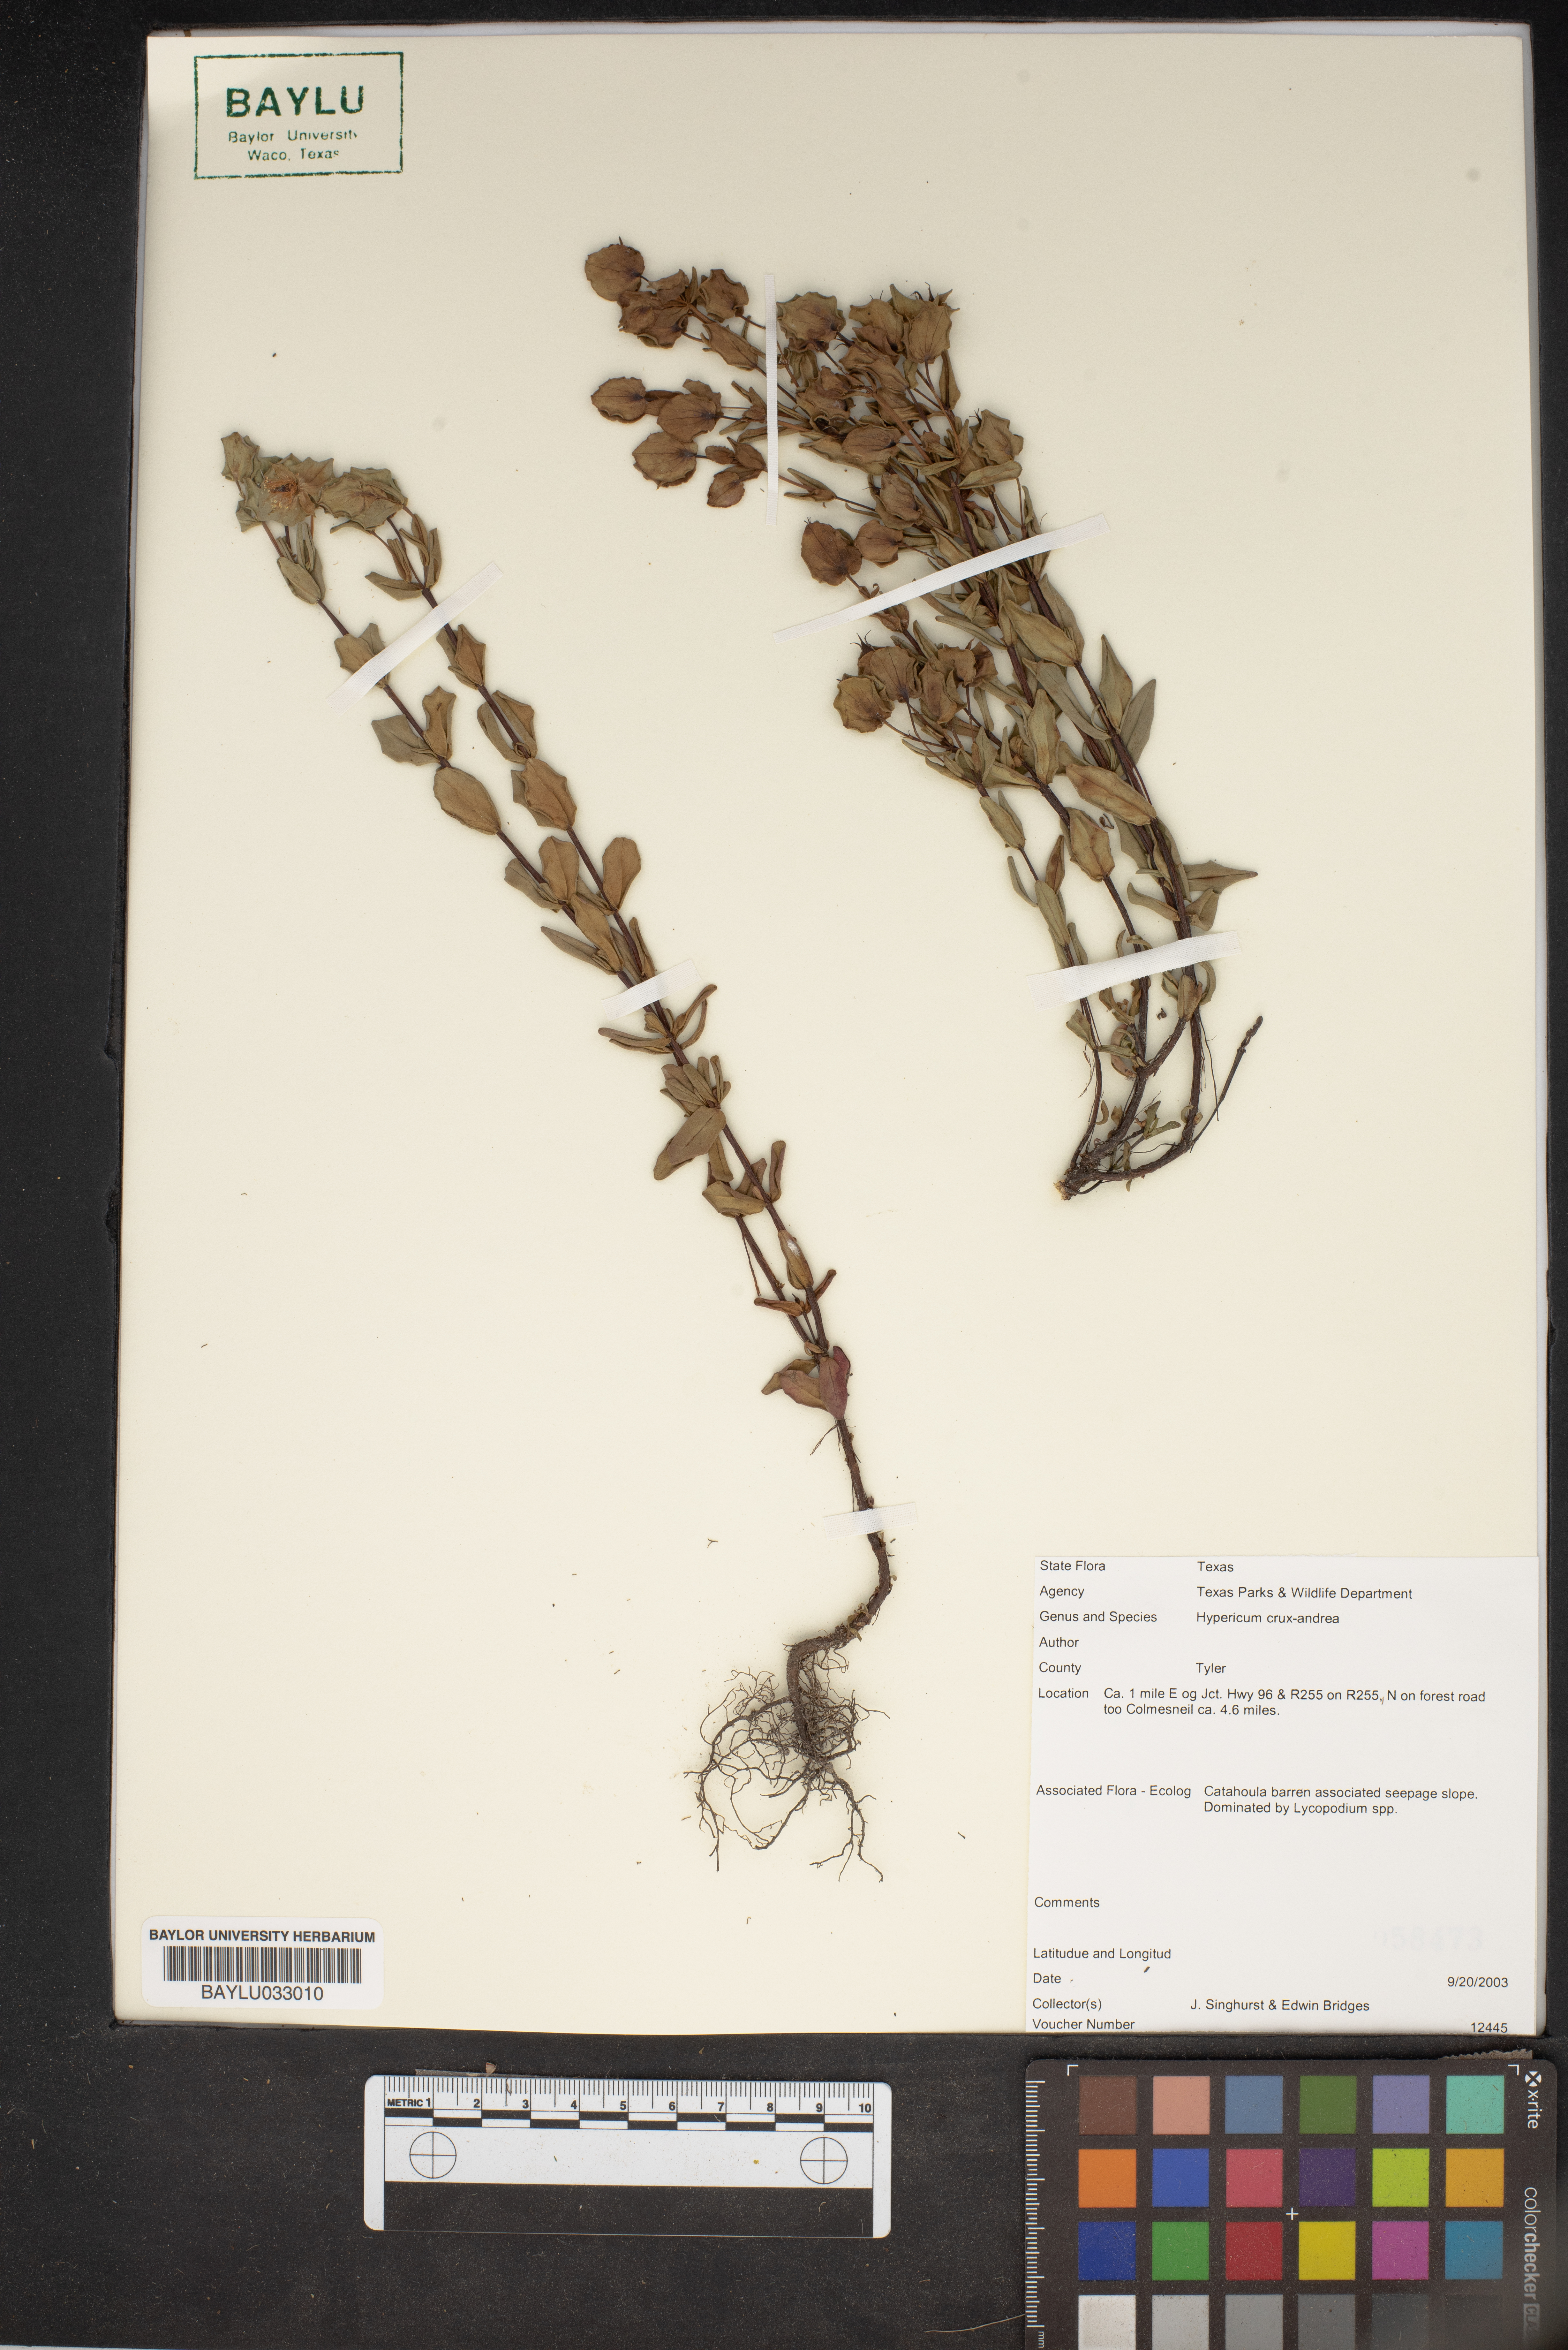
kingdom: Plantae
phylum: Tracheophyta
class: Magnoliopsida
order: Malpighiales
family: Hypericaceae
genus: Hypericum
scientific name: Hypericum crux-andreae
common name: St.-peter's-wort
